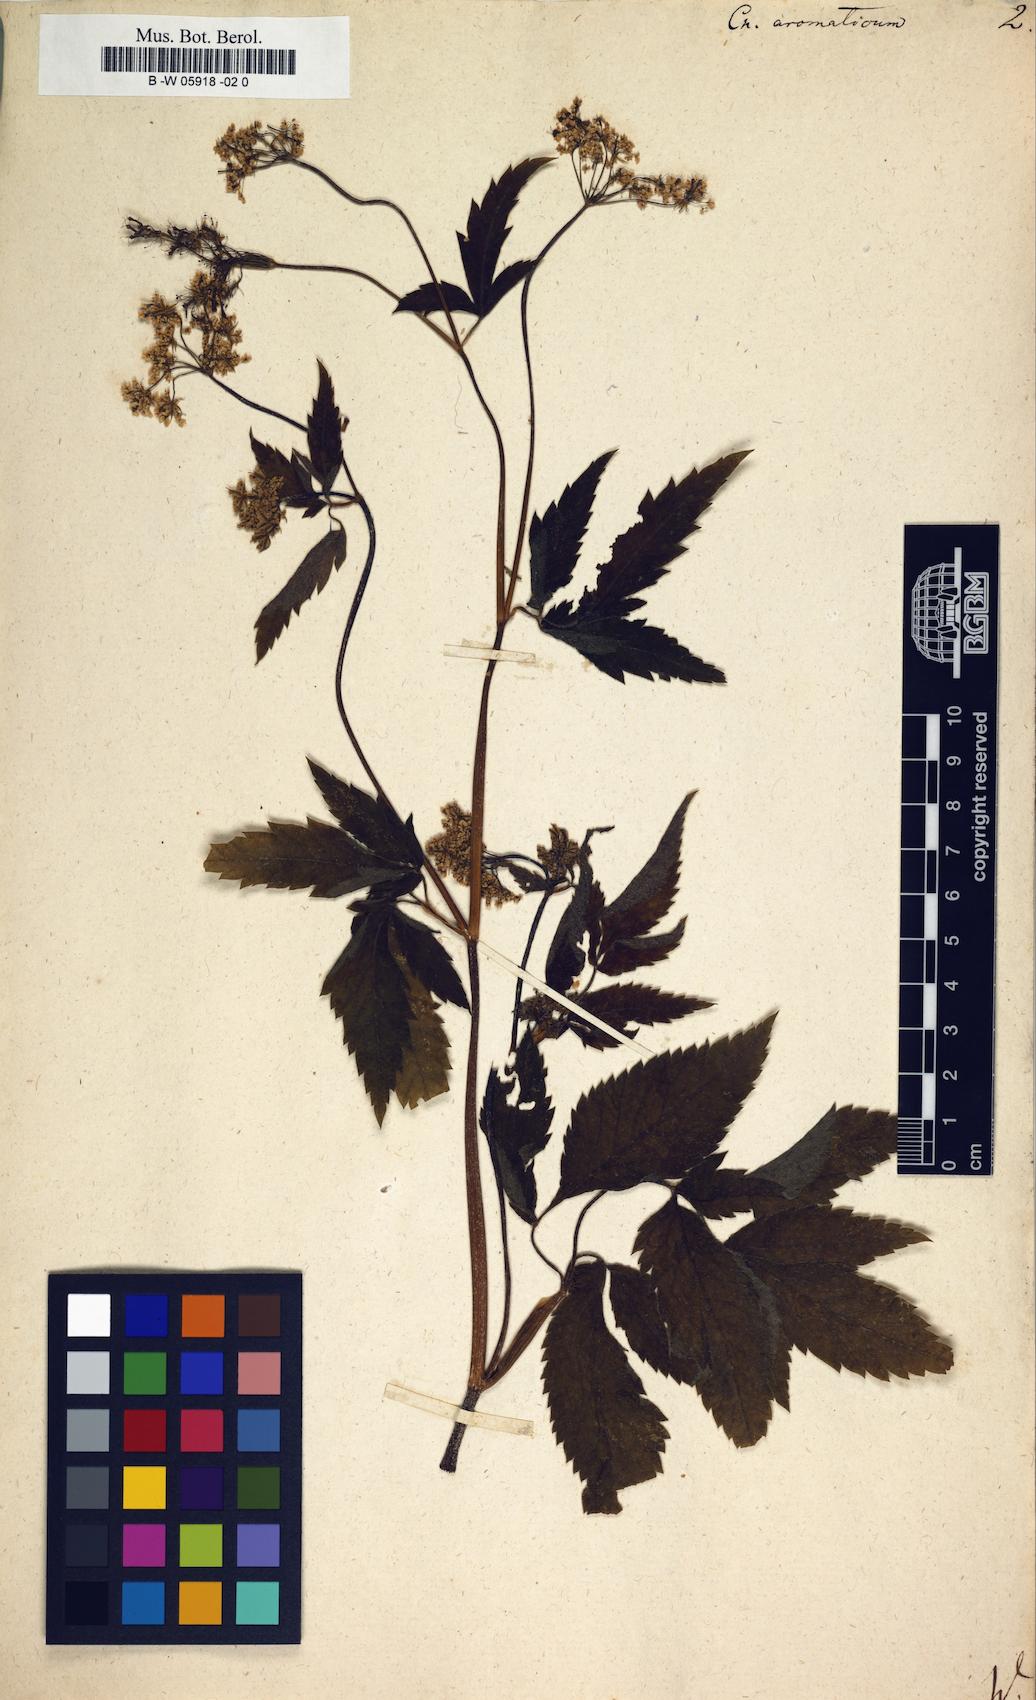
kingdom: Plantae
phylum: Tracheophyta
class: Magnoliopsida
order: Apiales
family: Apiaceae
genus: Chaerophyllum
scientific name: Chaerophyllum aromaticum
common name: Broadleaf chervil
